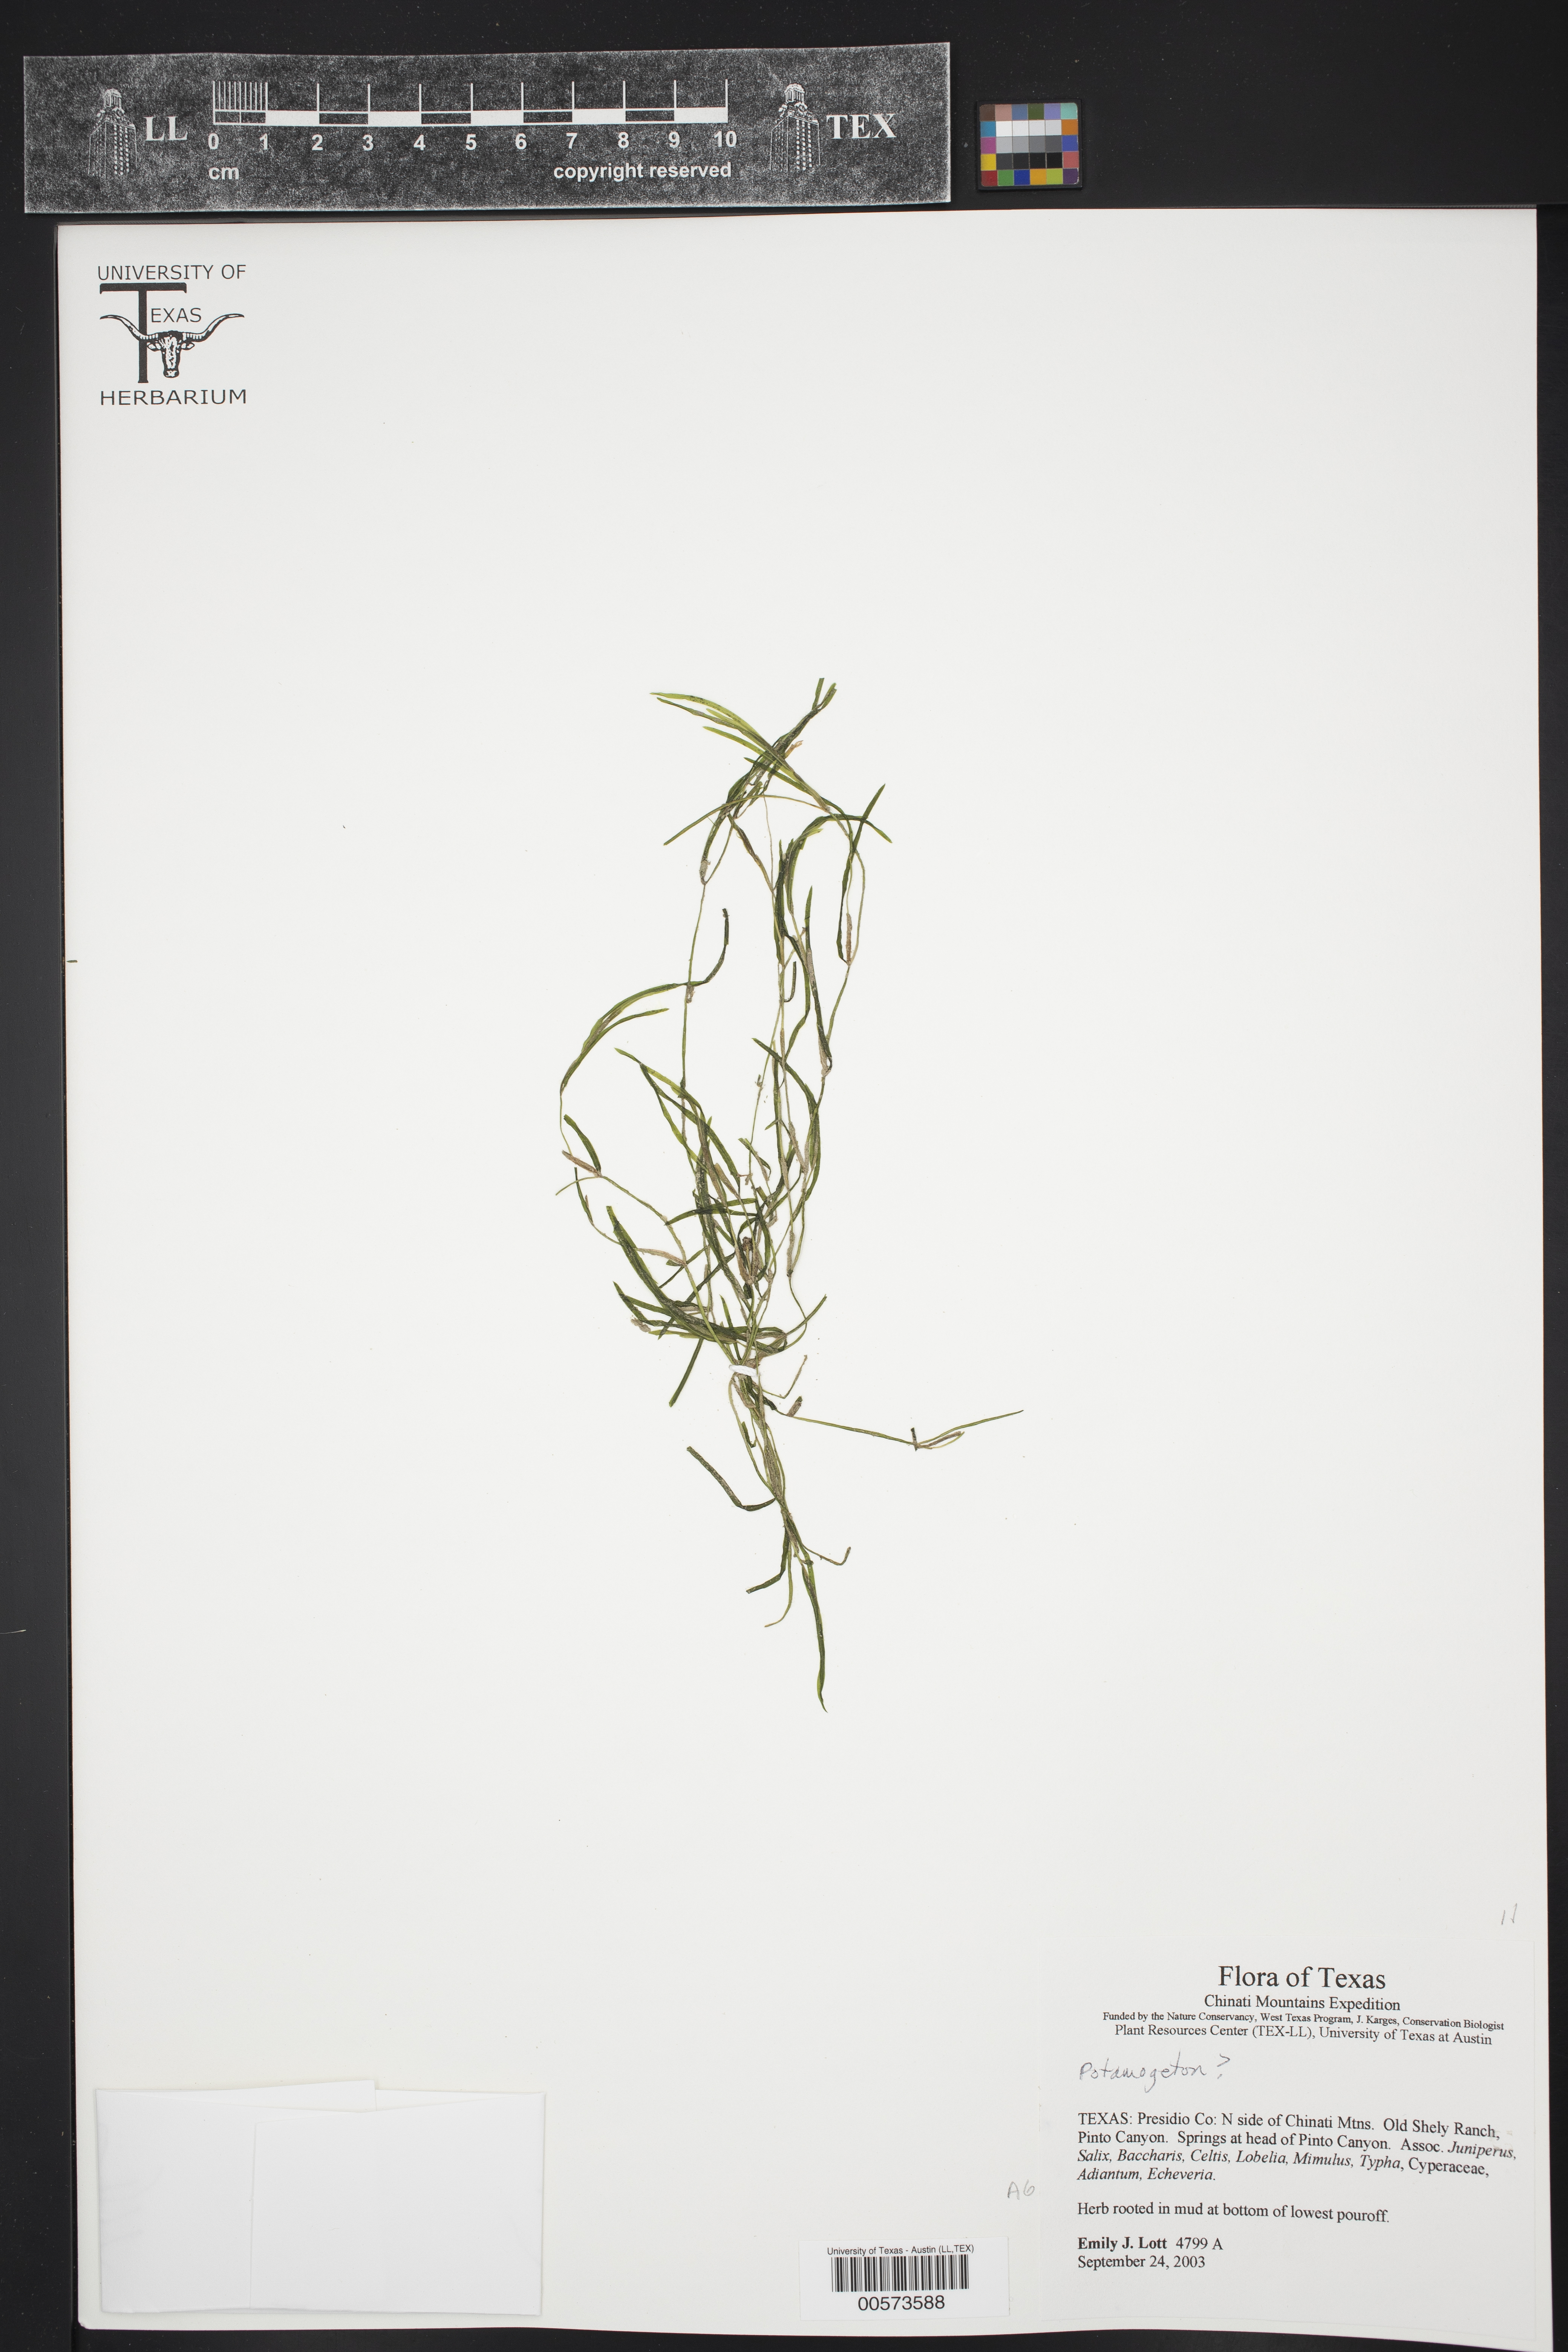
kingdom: Plantae
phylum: Tracheophyta
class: Liliopsida
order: Alismatales
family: Potamogetonaceae
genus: Potamogeton
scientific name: Potamogeton
